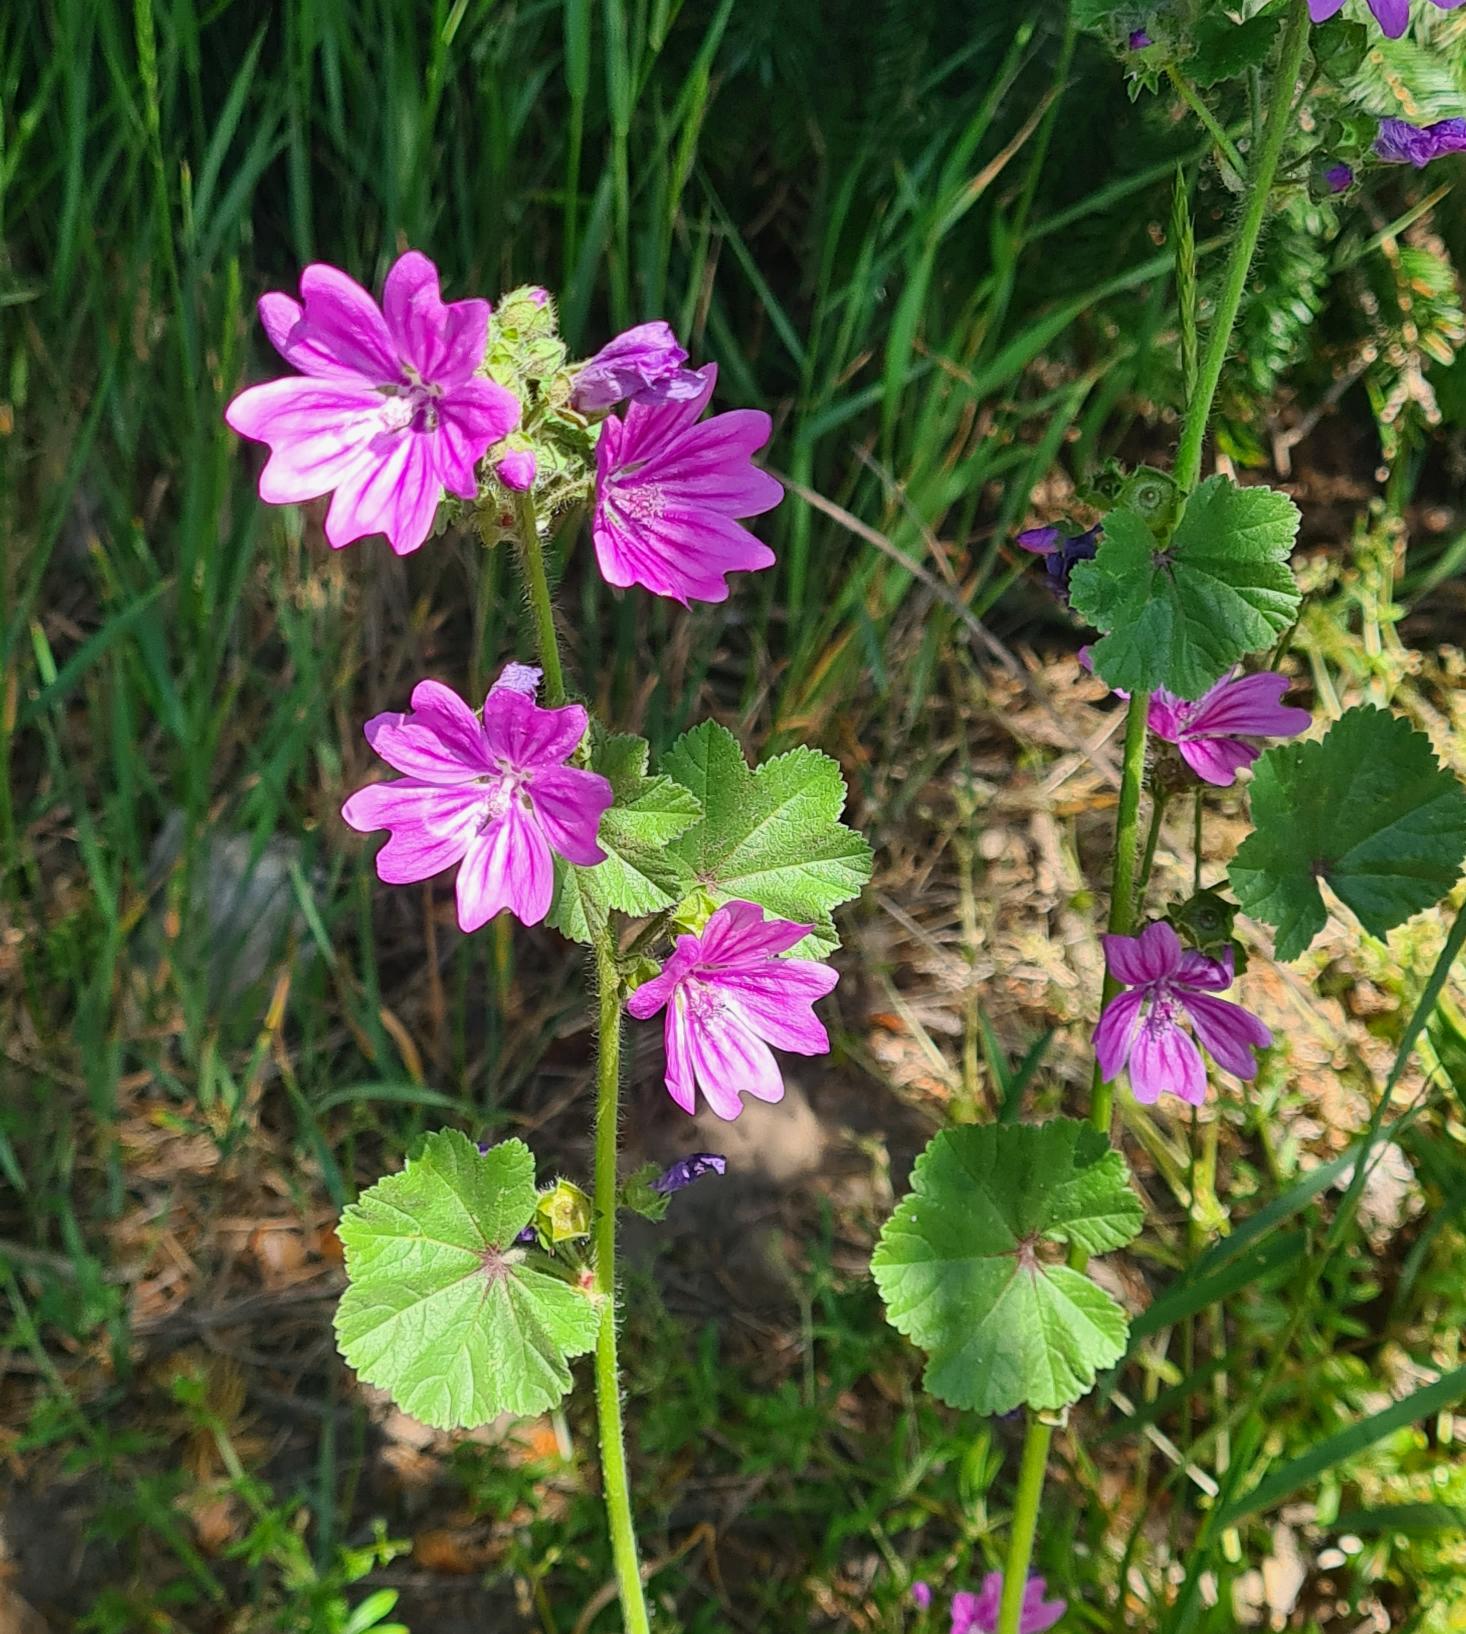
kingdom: Plantae
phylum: Tracheophyta
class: Magnoliopsida
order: Malvales
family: Malvaceae
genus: Malva
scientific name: Malva neglecta
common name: Rundbladet katost
